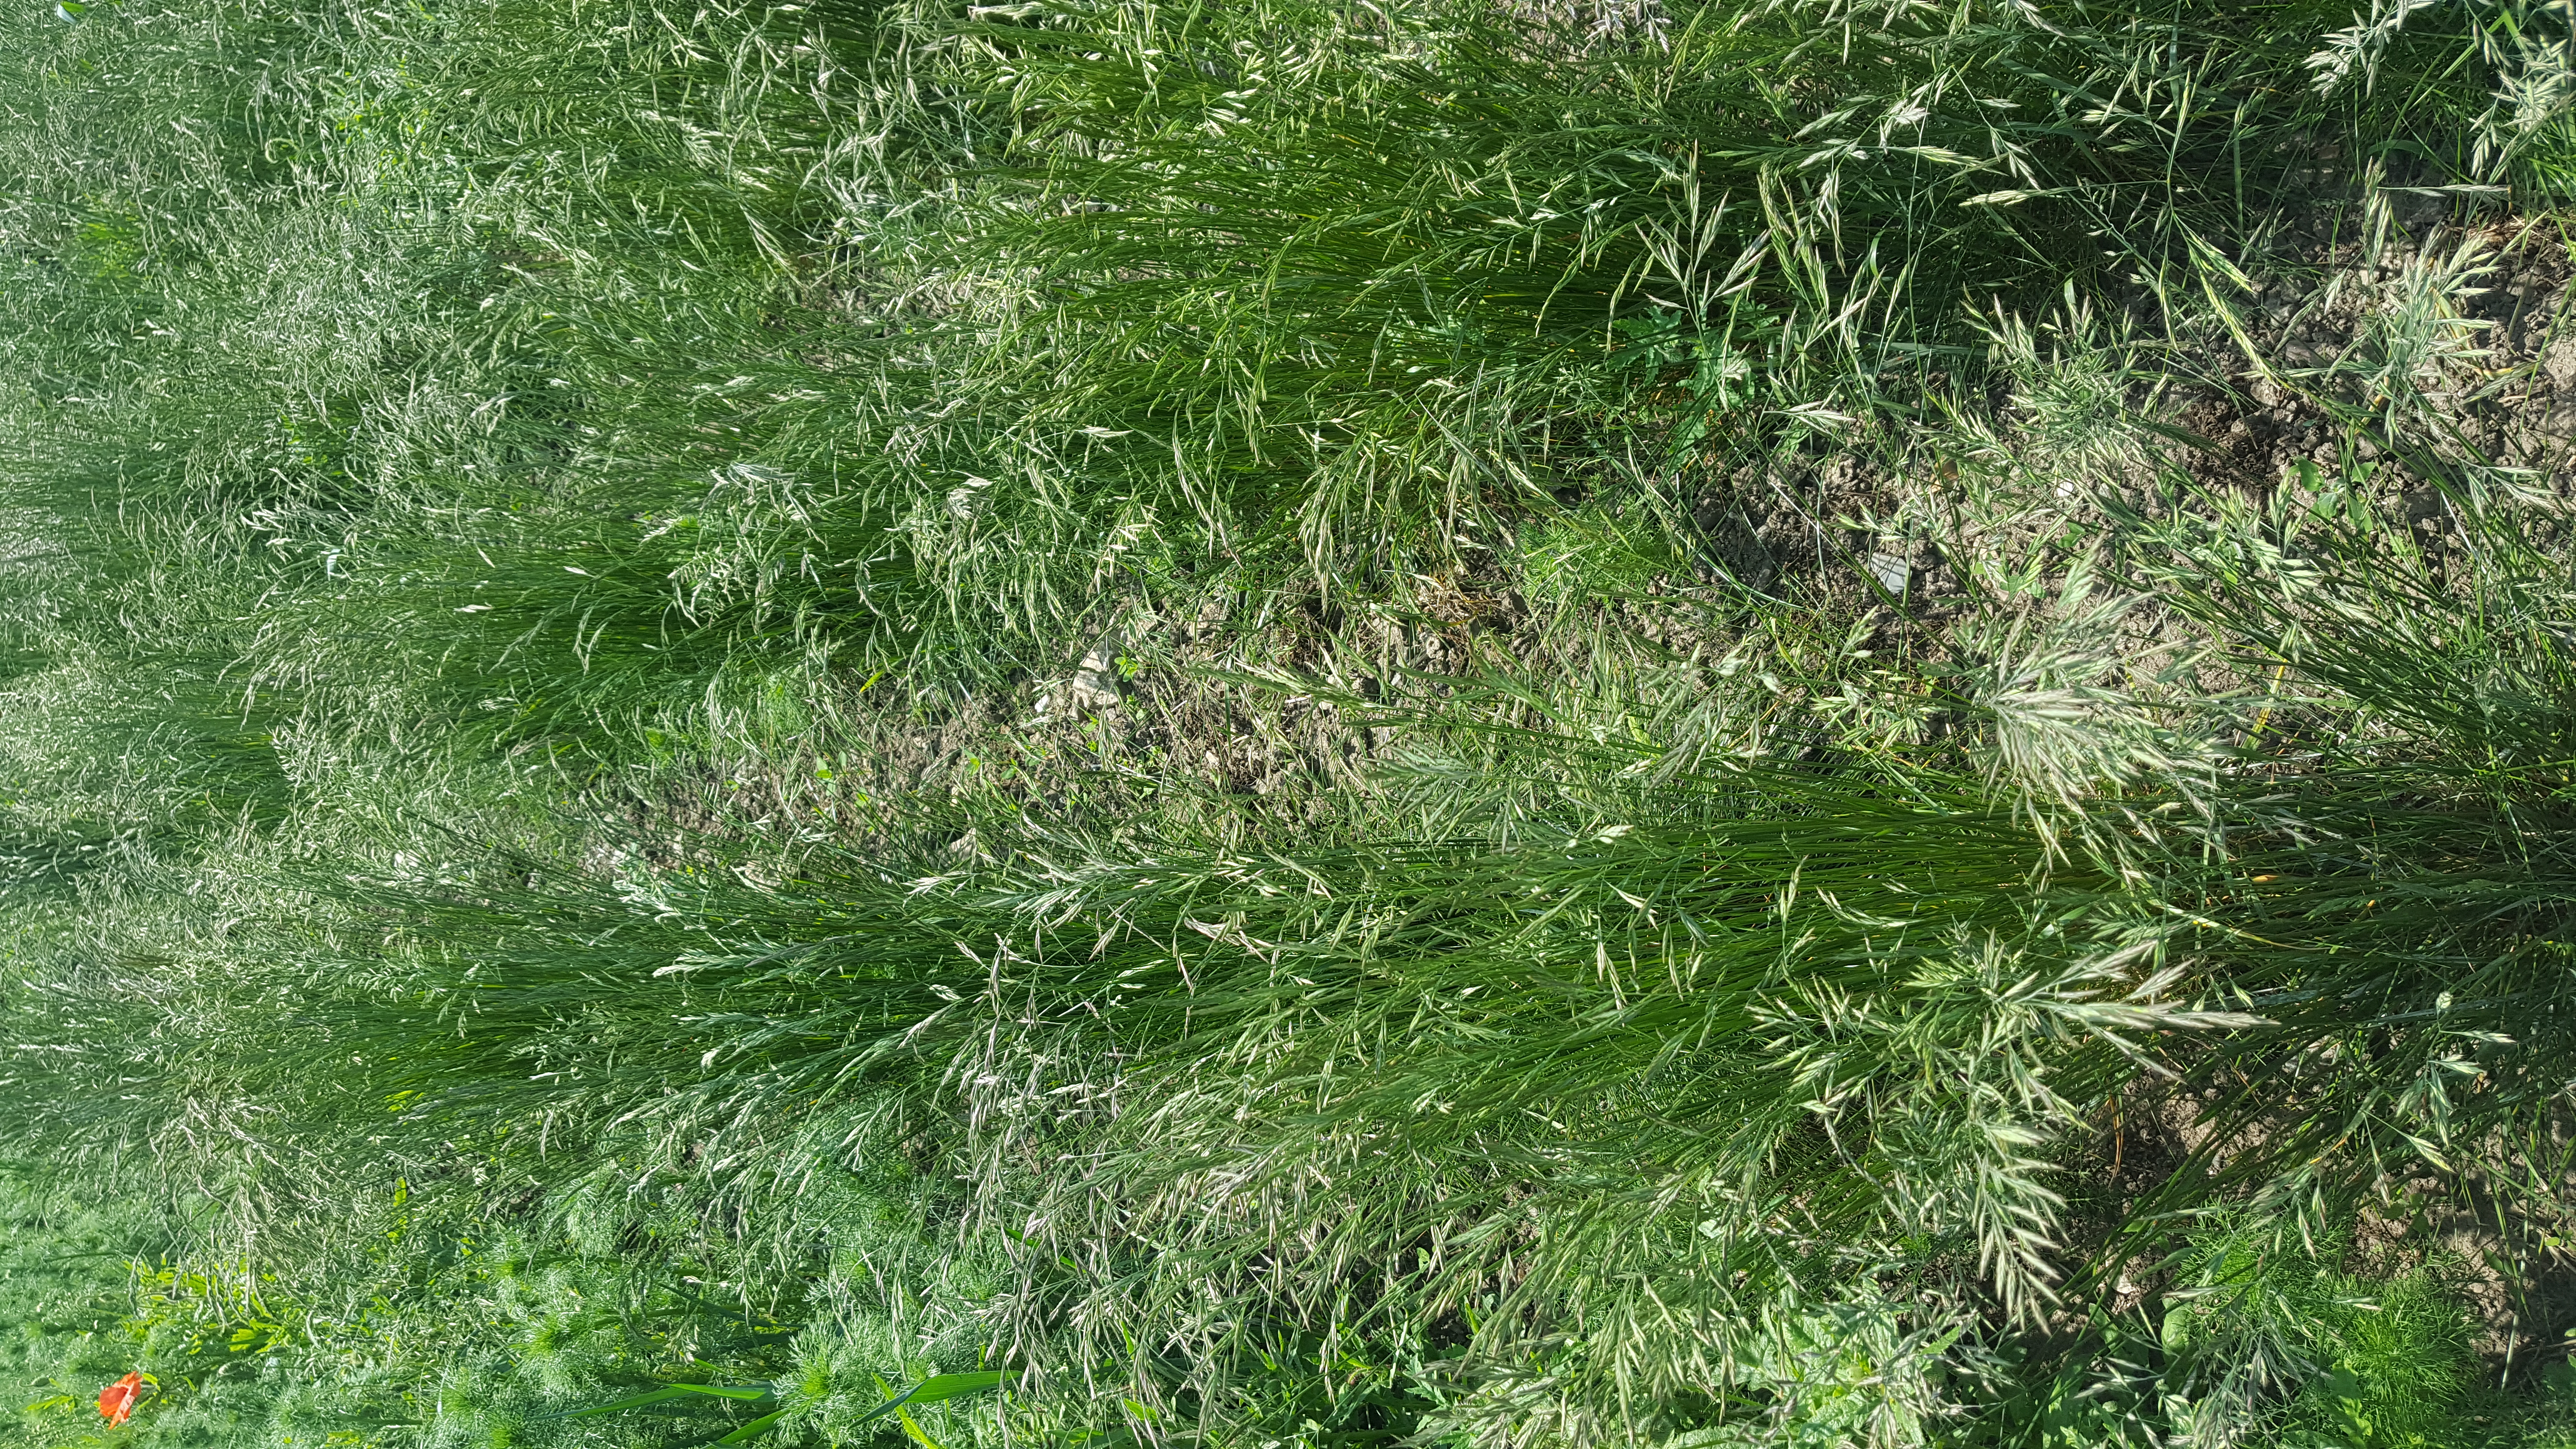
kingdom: Plantae
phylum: Tracheophyta
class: Liliopsida
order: Poales
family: Poaceae
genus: Festuca
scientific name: Festuca rubra
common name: Red fescue
